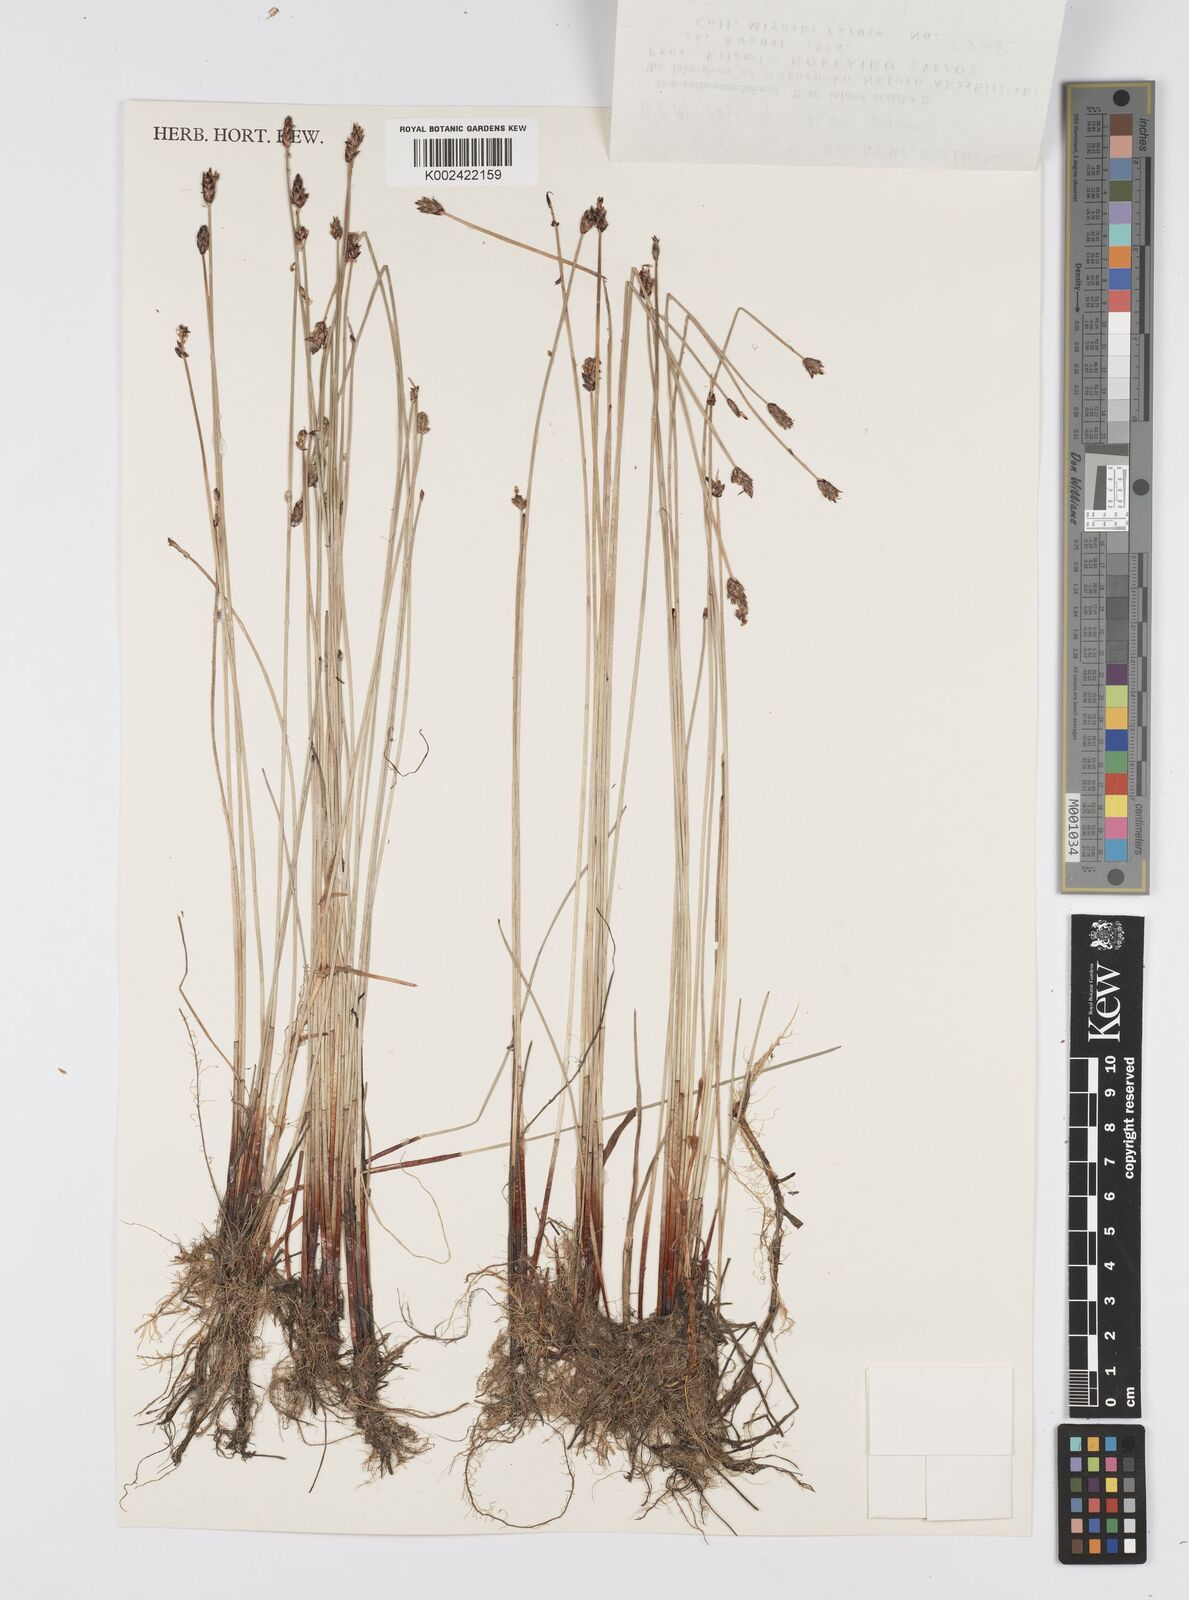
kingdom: Plantae
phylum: Tracheophyta
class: Liliopsida
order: Poales
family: Cyperaceae
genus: Eleocharis
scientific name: Eleocharis kamtschatica
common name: Kamchatka spikerush
